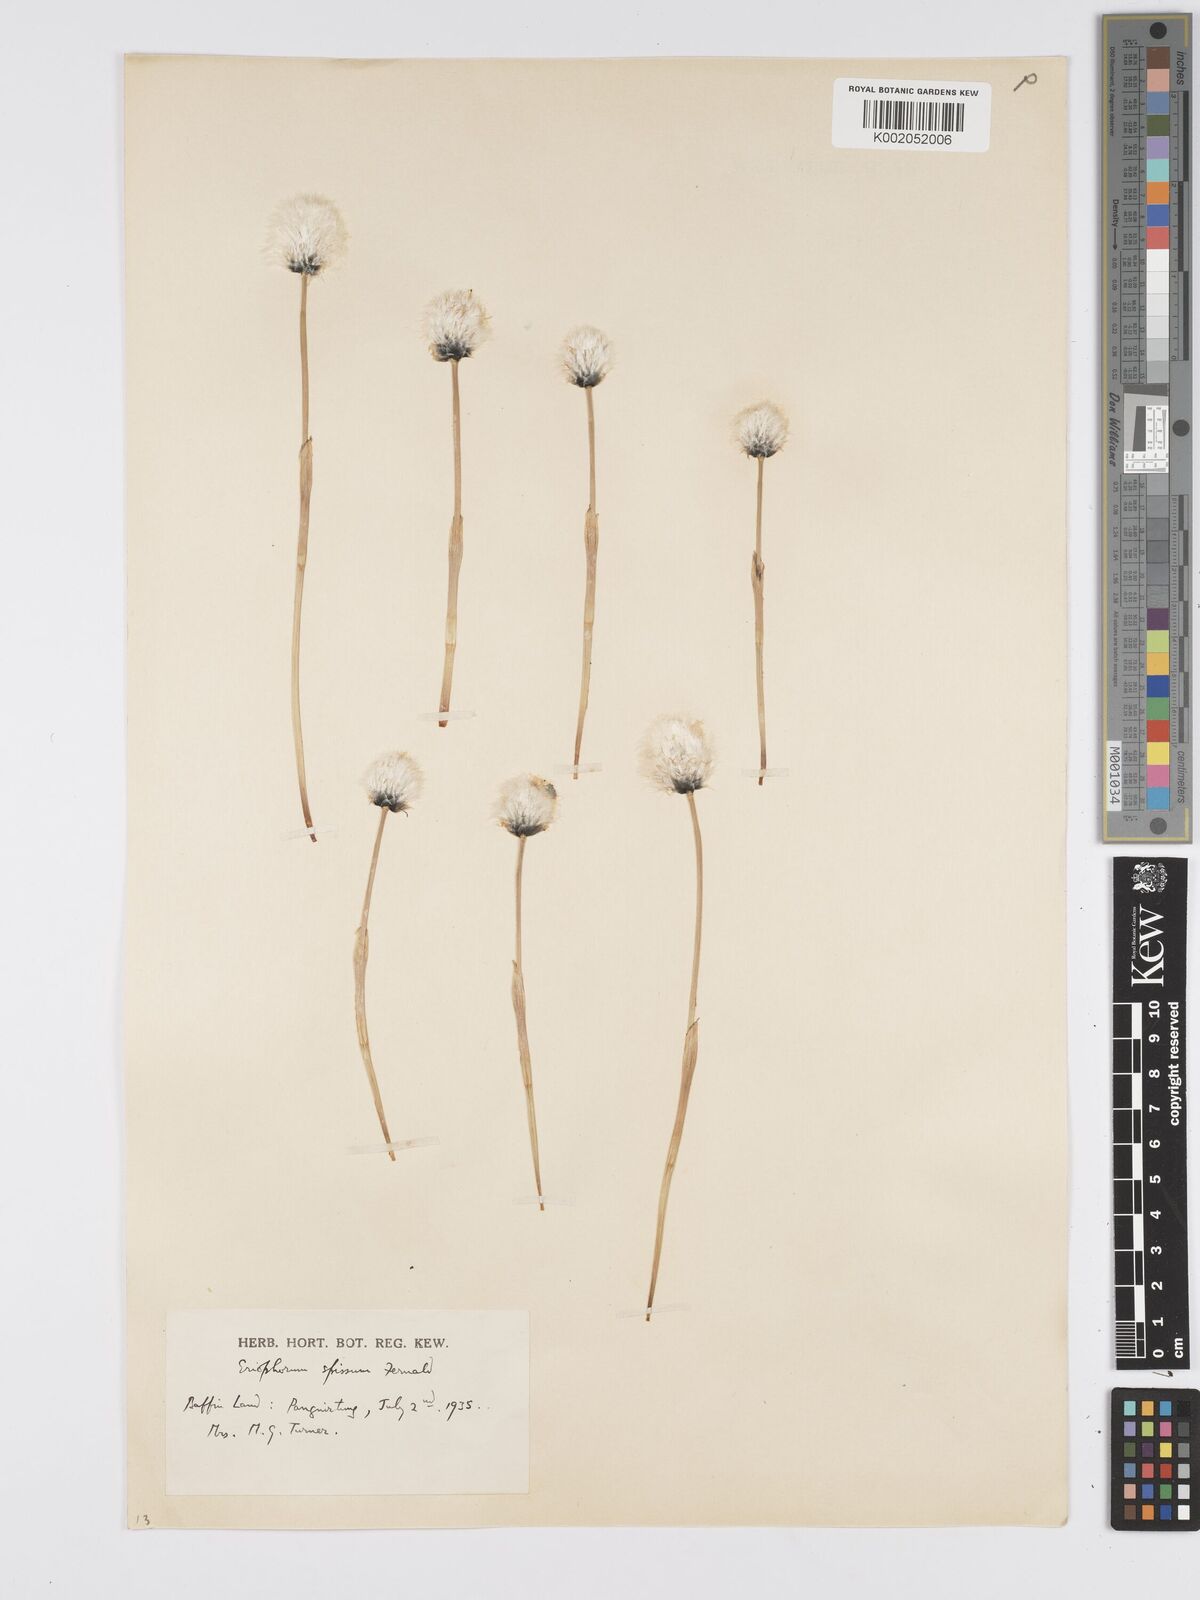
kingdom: Plantae
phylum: Tracheophyta
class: Liliopsida
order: Poales
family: Cyperaceae
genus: Eriophorum
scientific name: Eriophorum vaginatum
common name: Hare's-tail cottongrass
